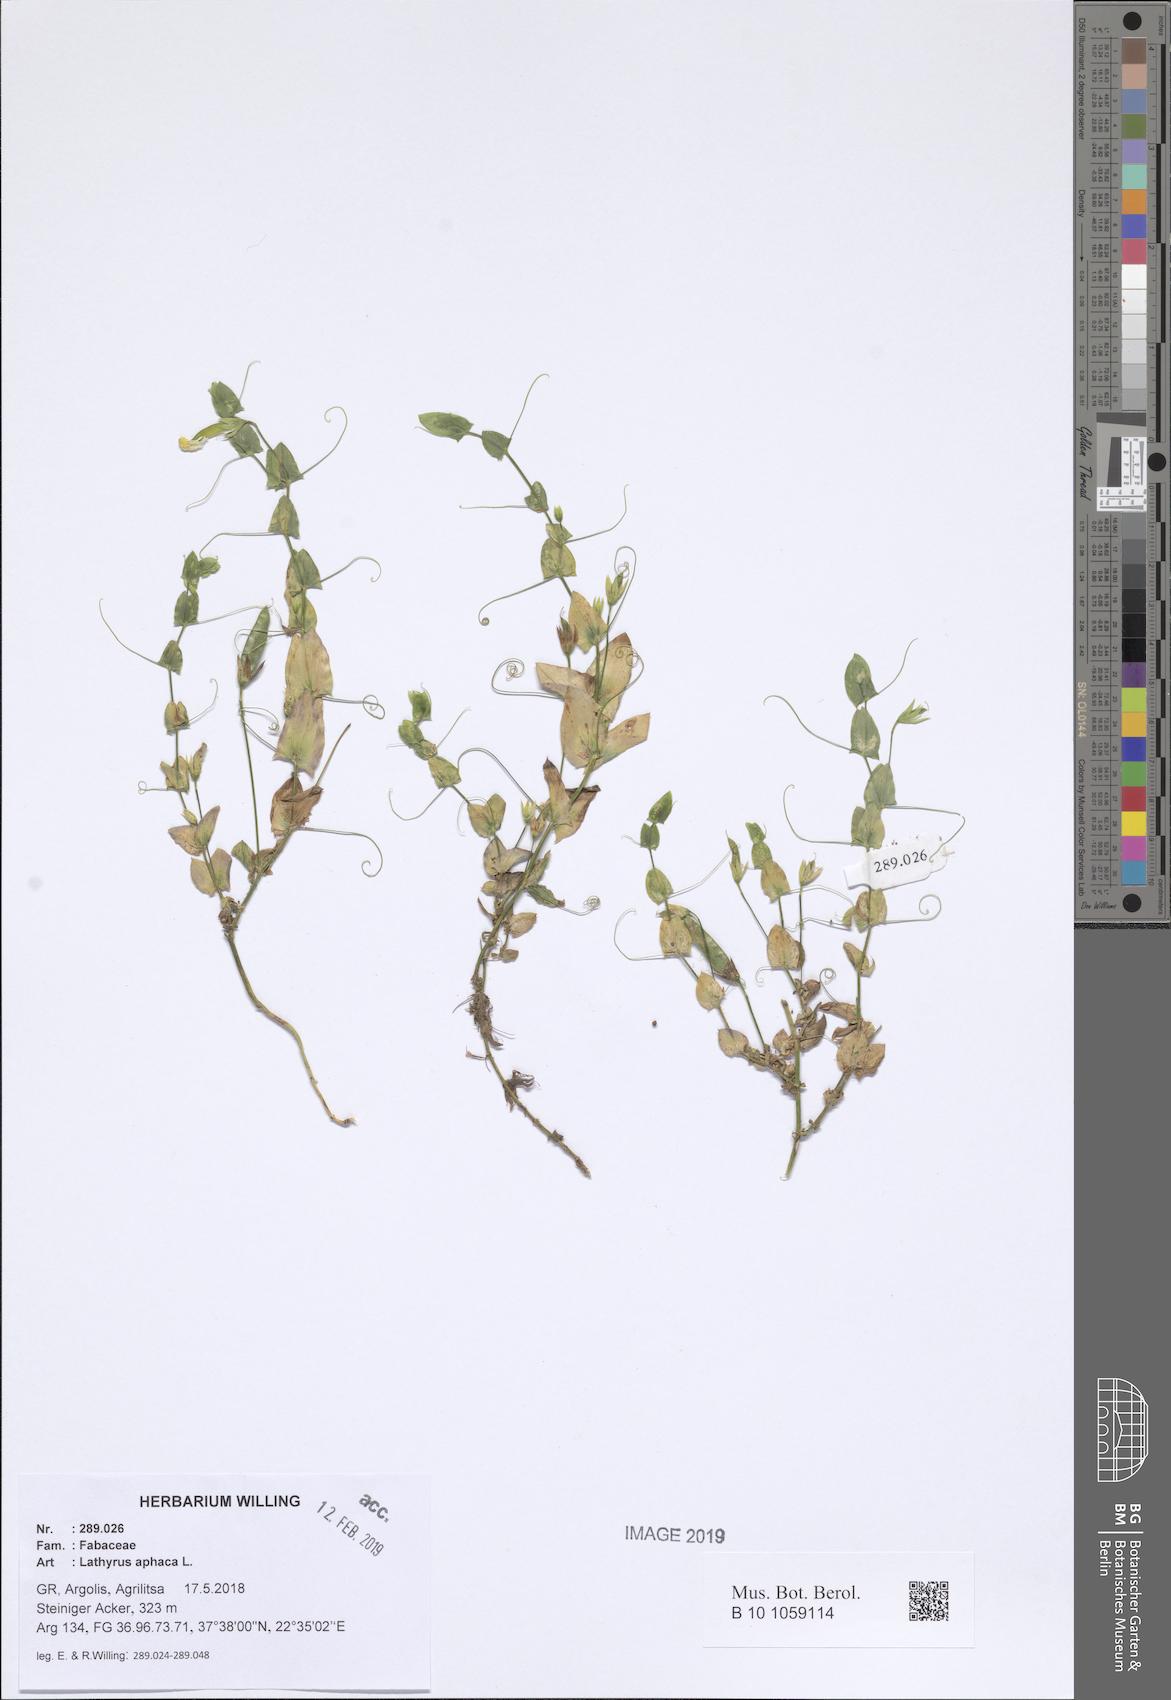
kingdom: Plantae
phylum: Tracheophyta
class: Magnoliopsida
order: Fabales
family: Fabaceae
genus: Lathyrus
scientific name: Lathyrus aphaca
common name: Yellow vetchling
